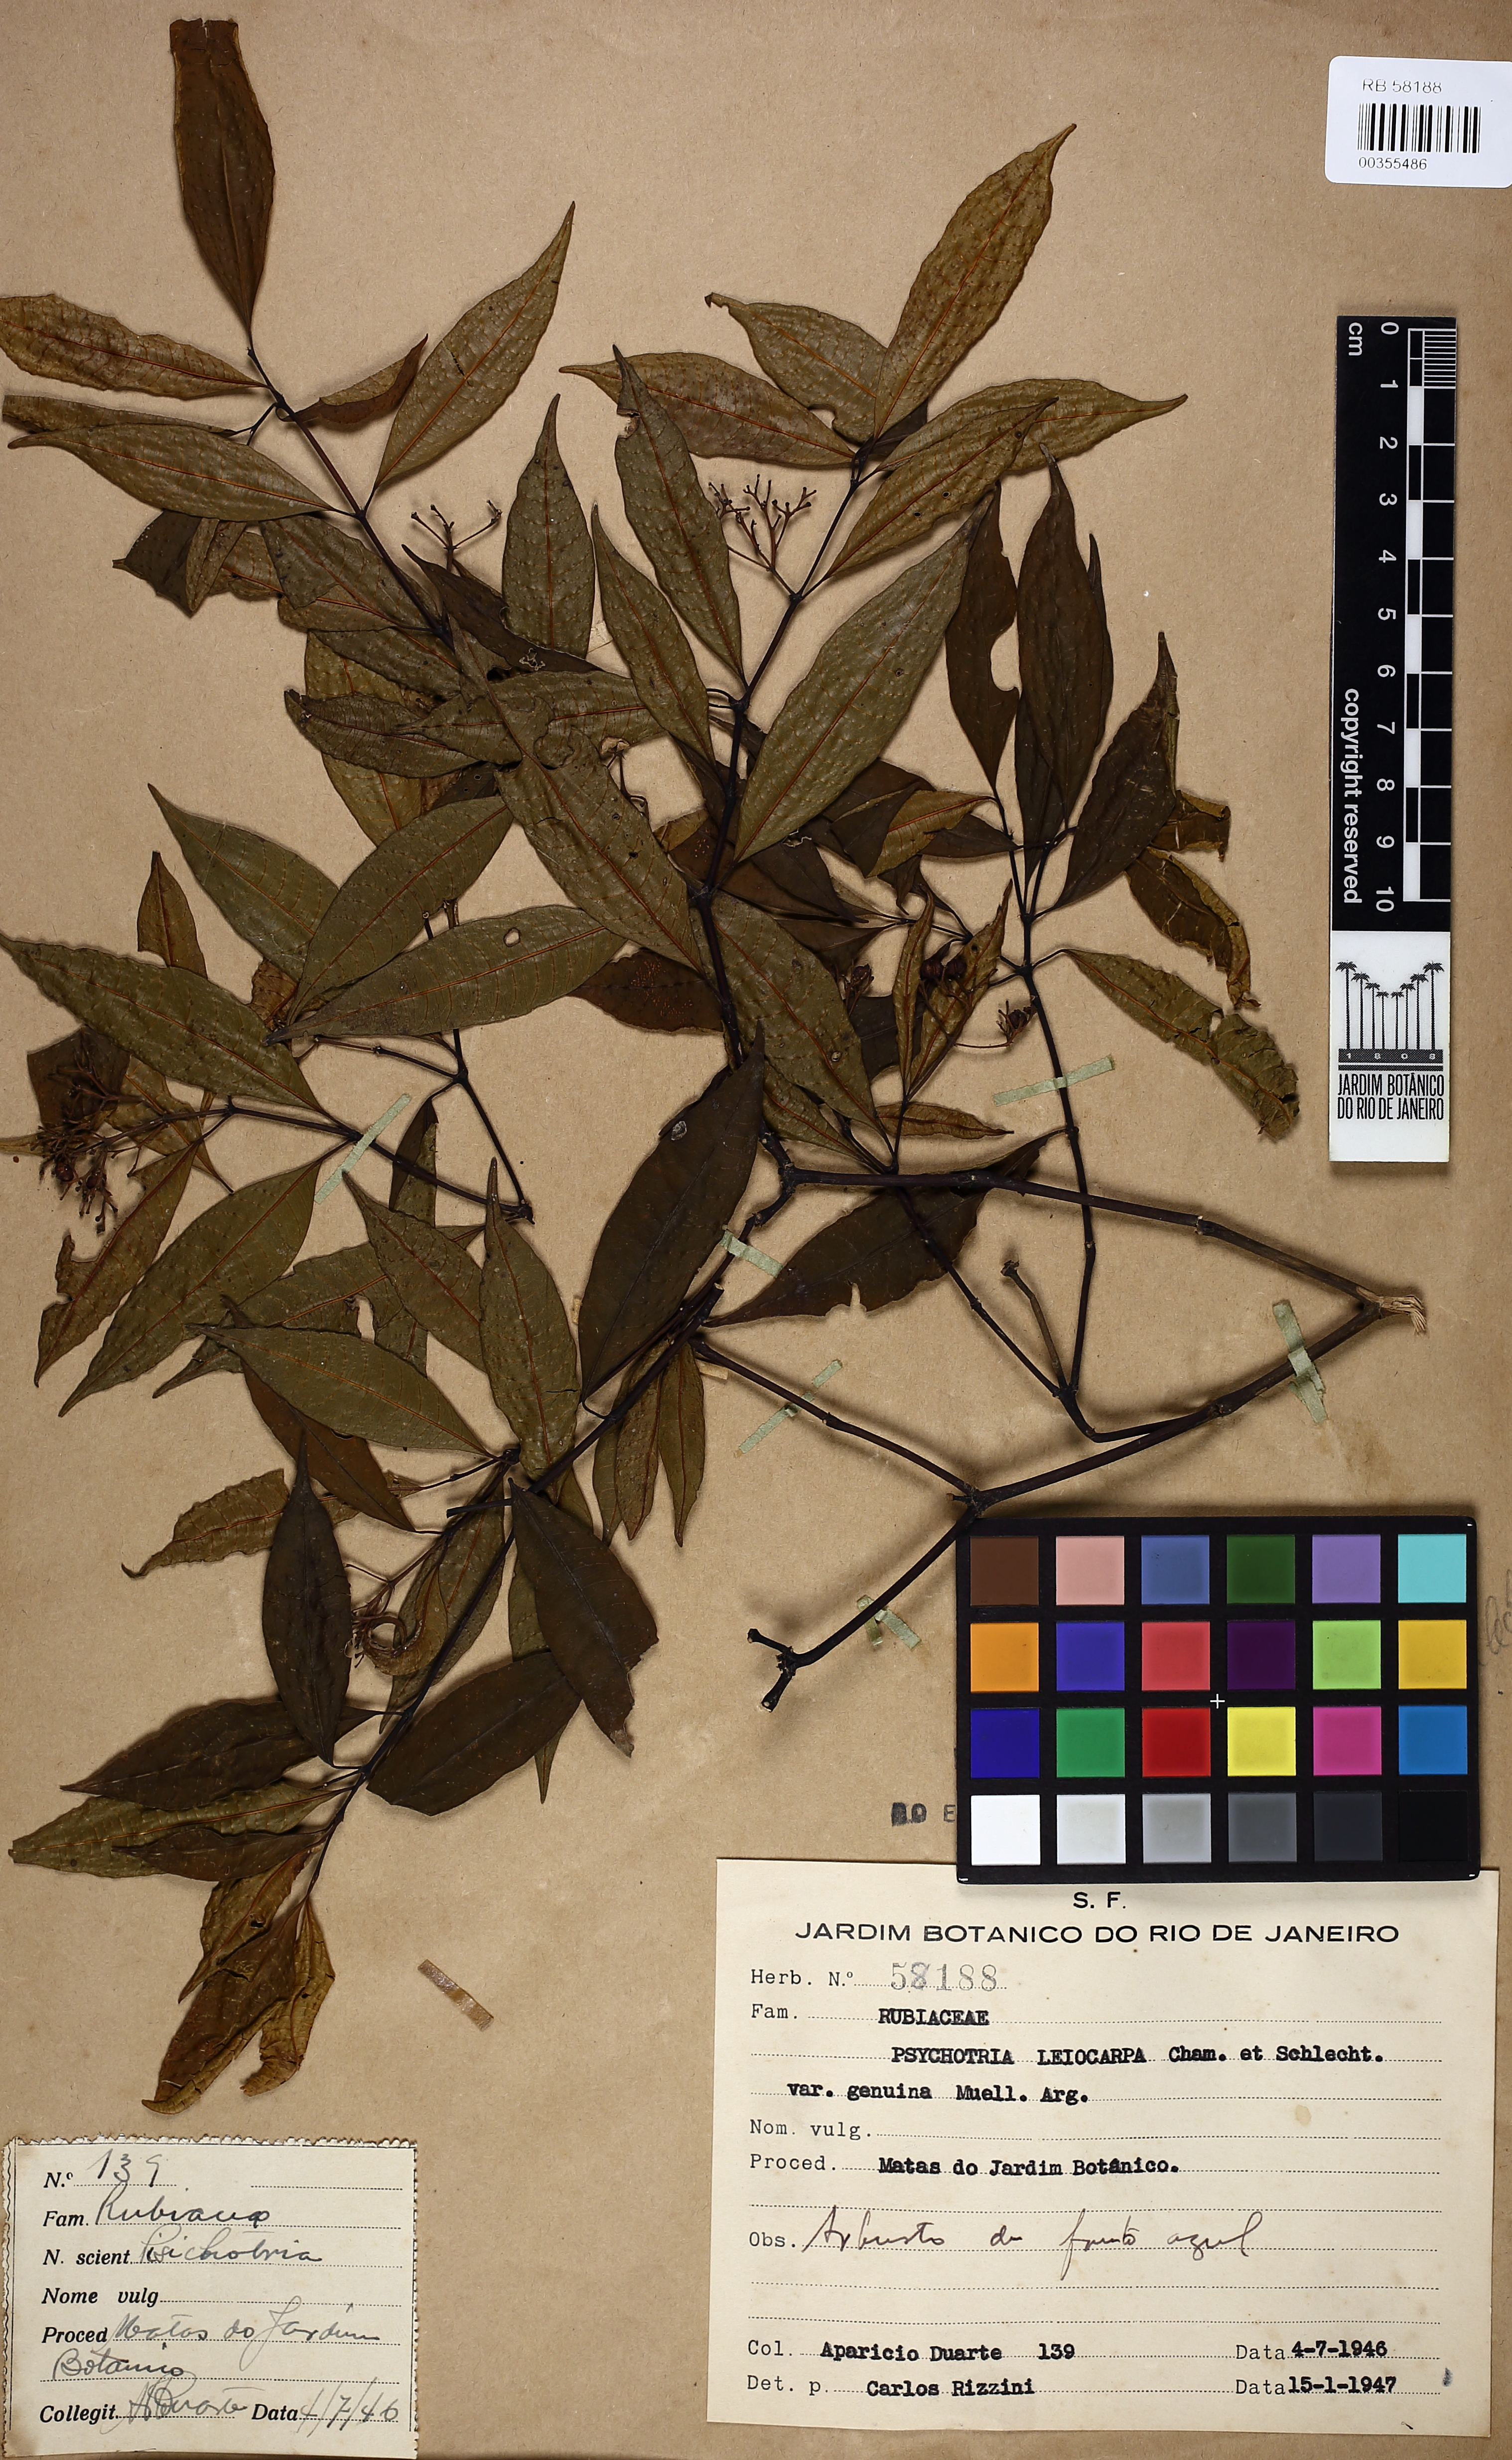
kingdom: Plantae
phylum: Tracheophyta
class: Magnoliopsida
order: Gentianales
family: Rubiaceae
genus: Psychotria
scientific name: Psychotria leiocarpa
